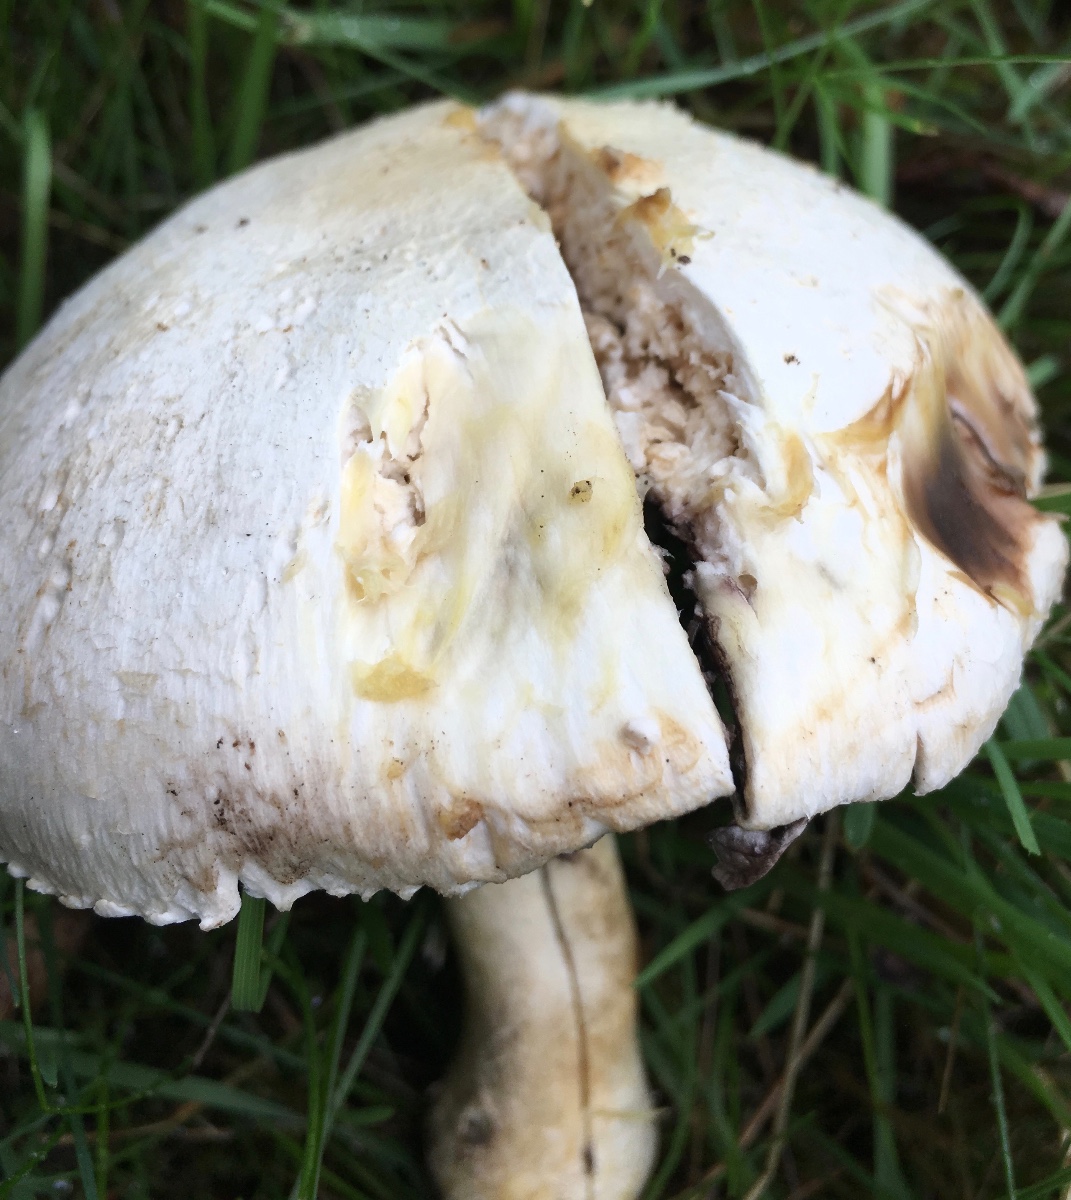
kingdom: Fungi
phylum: Basidiomycota
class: Agaricomycetes
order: Agaricales
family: Agaricaceae
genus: Agaricus
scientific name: Agaricus arvensis
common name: ager-champignon
